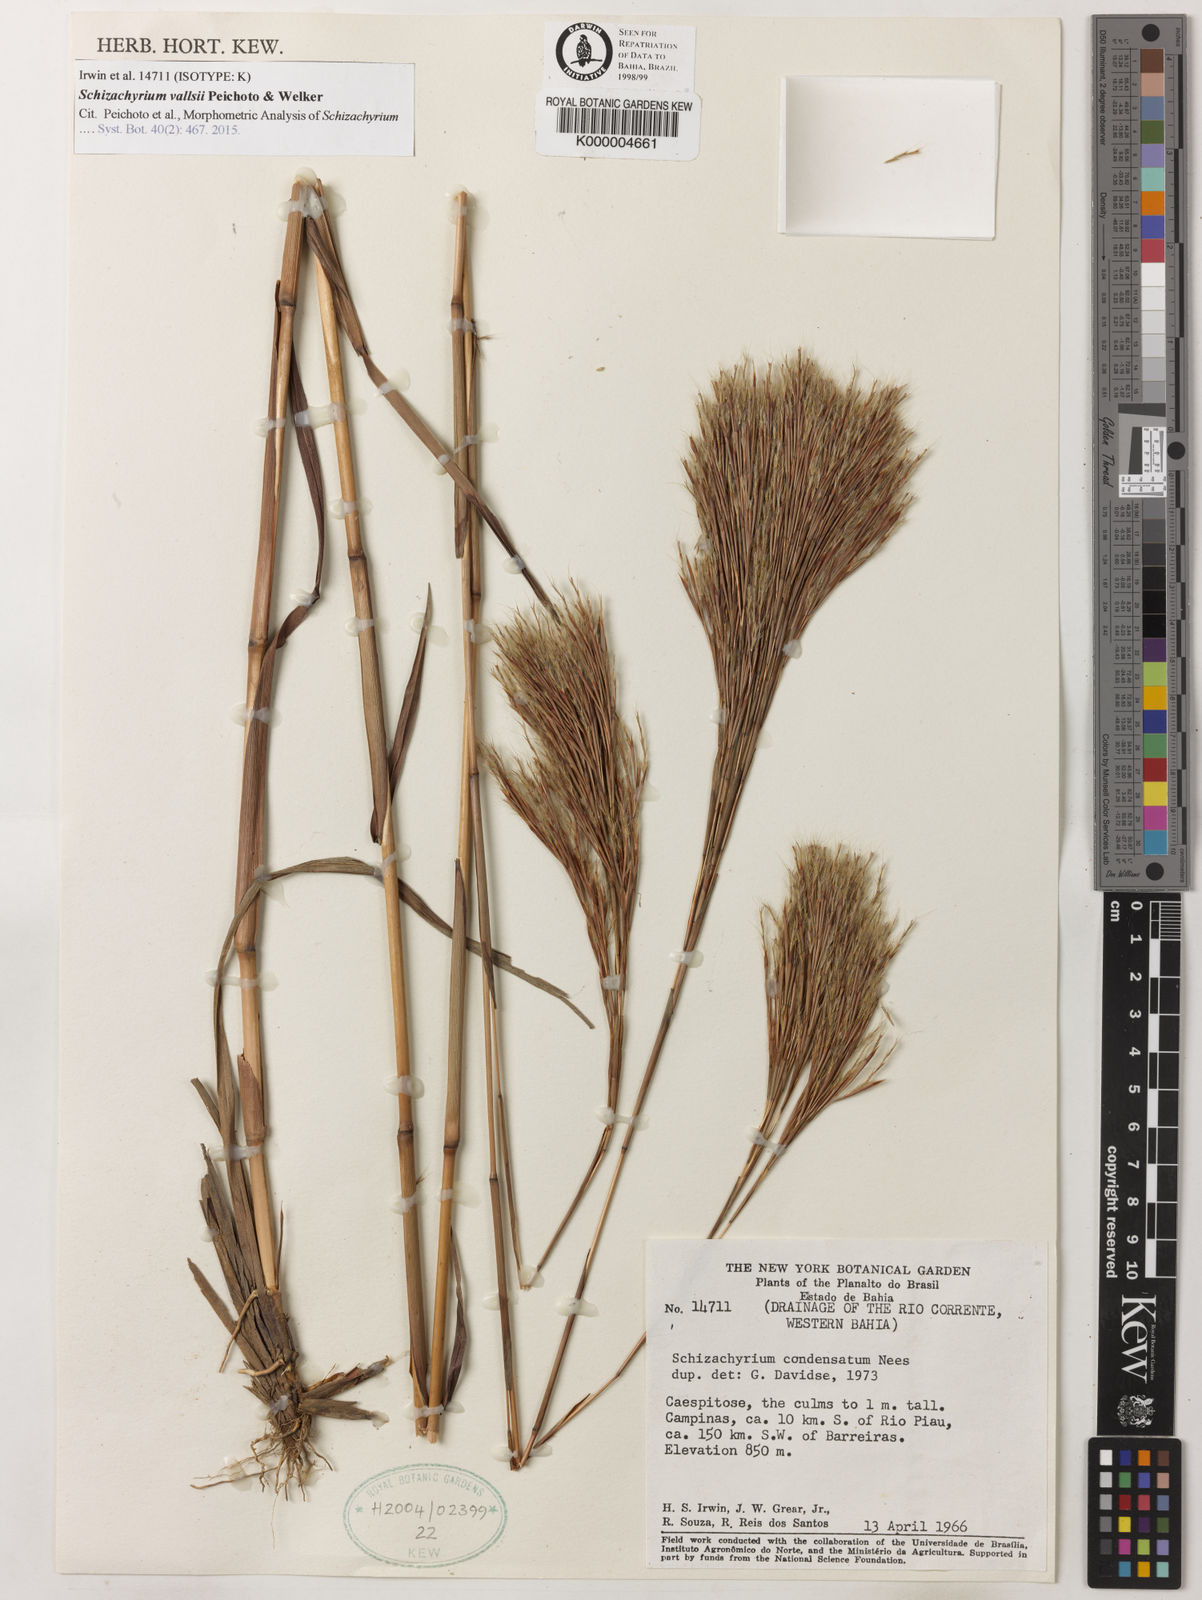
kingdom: Plantae
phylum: Tracheophyta
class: Liliopsida
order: Poales
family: Poaceae
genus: Schizachyrium
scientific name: Schizachyrium vallsii
